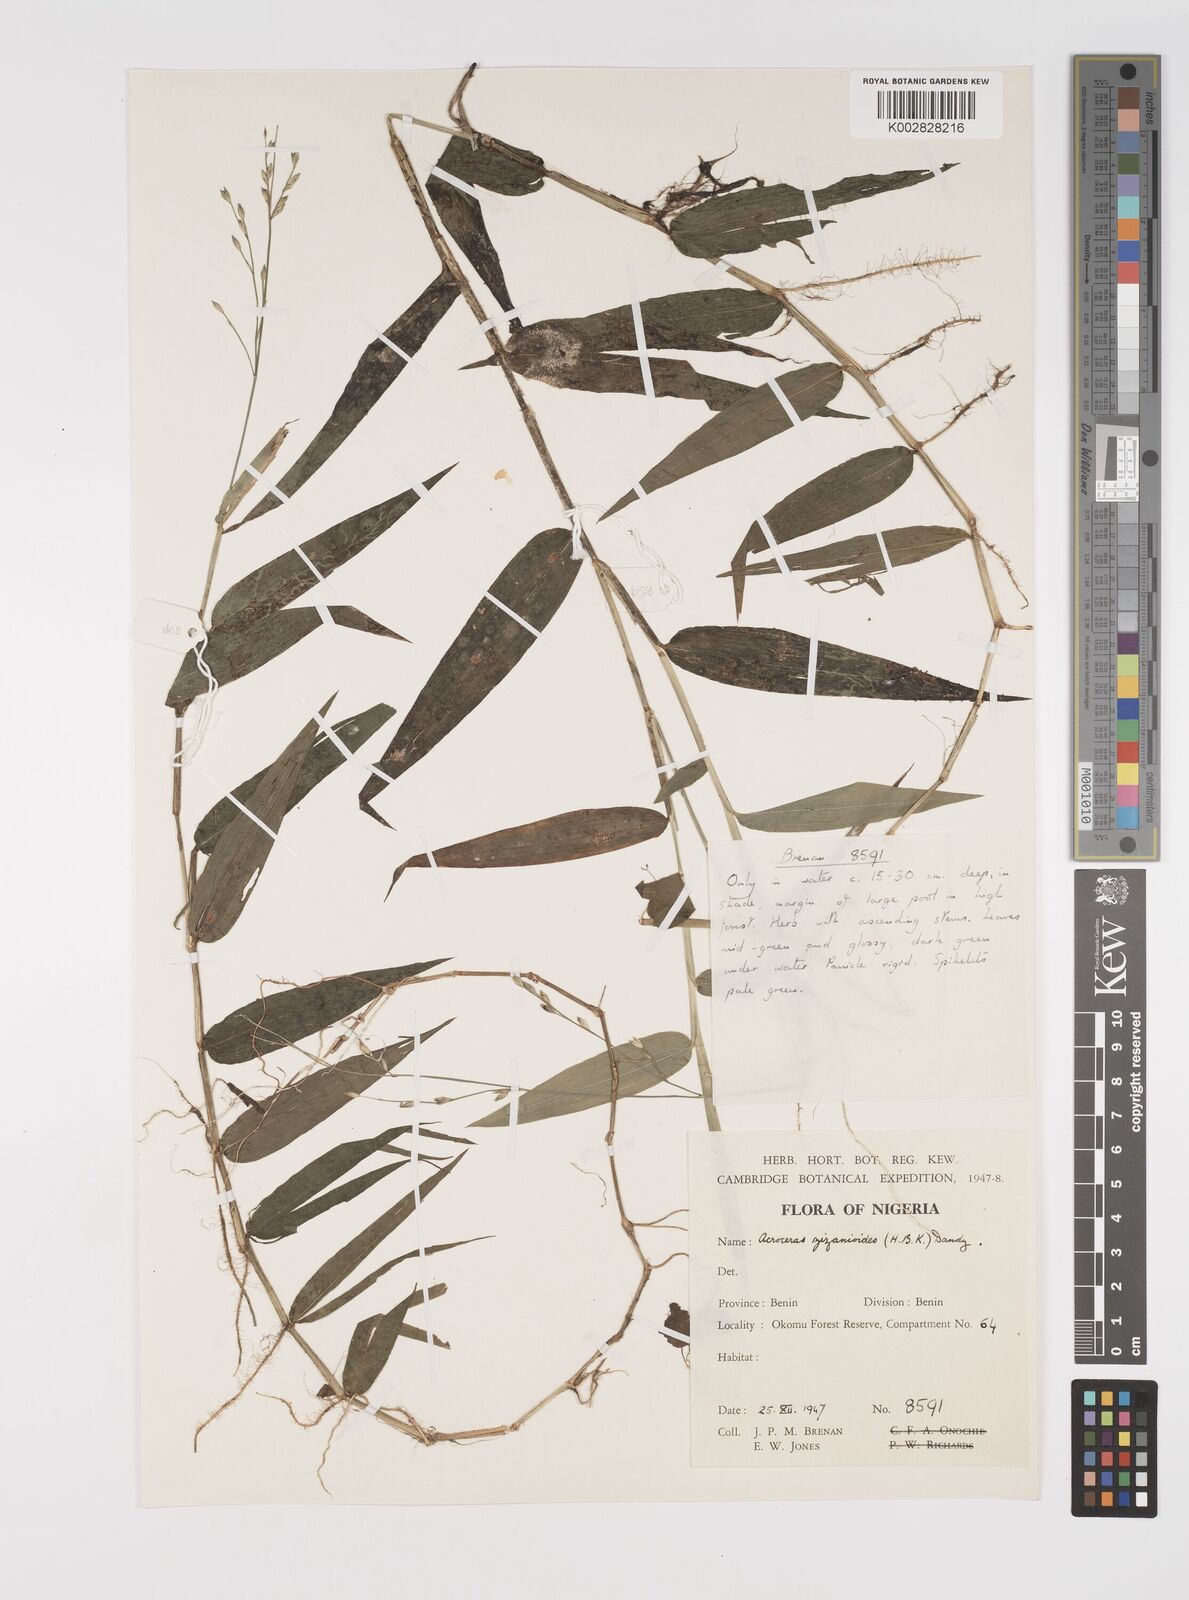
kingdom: Plantae
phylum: Tracheophyta
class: Liliopsida
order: Poales
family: Poaceae
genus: Acroceras
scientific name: Acroceras zizanioides
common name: Oat grass
